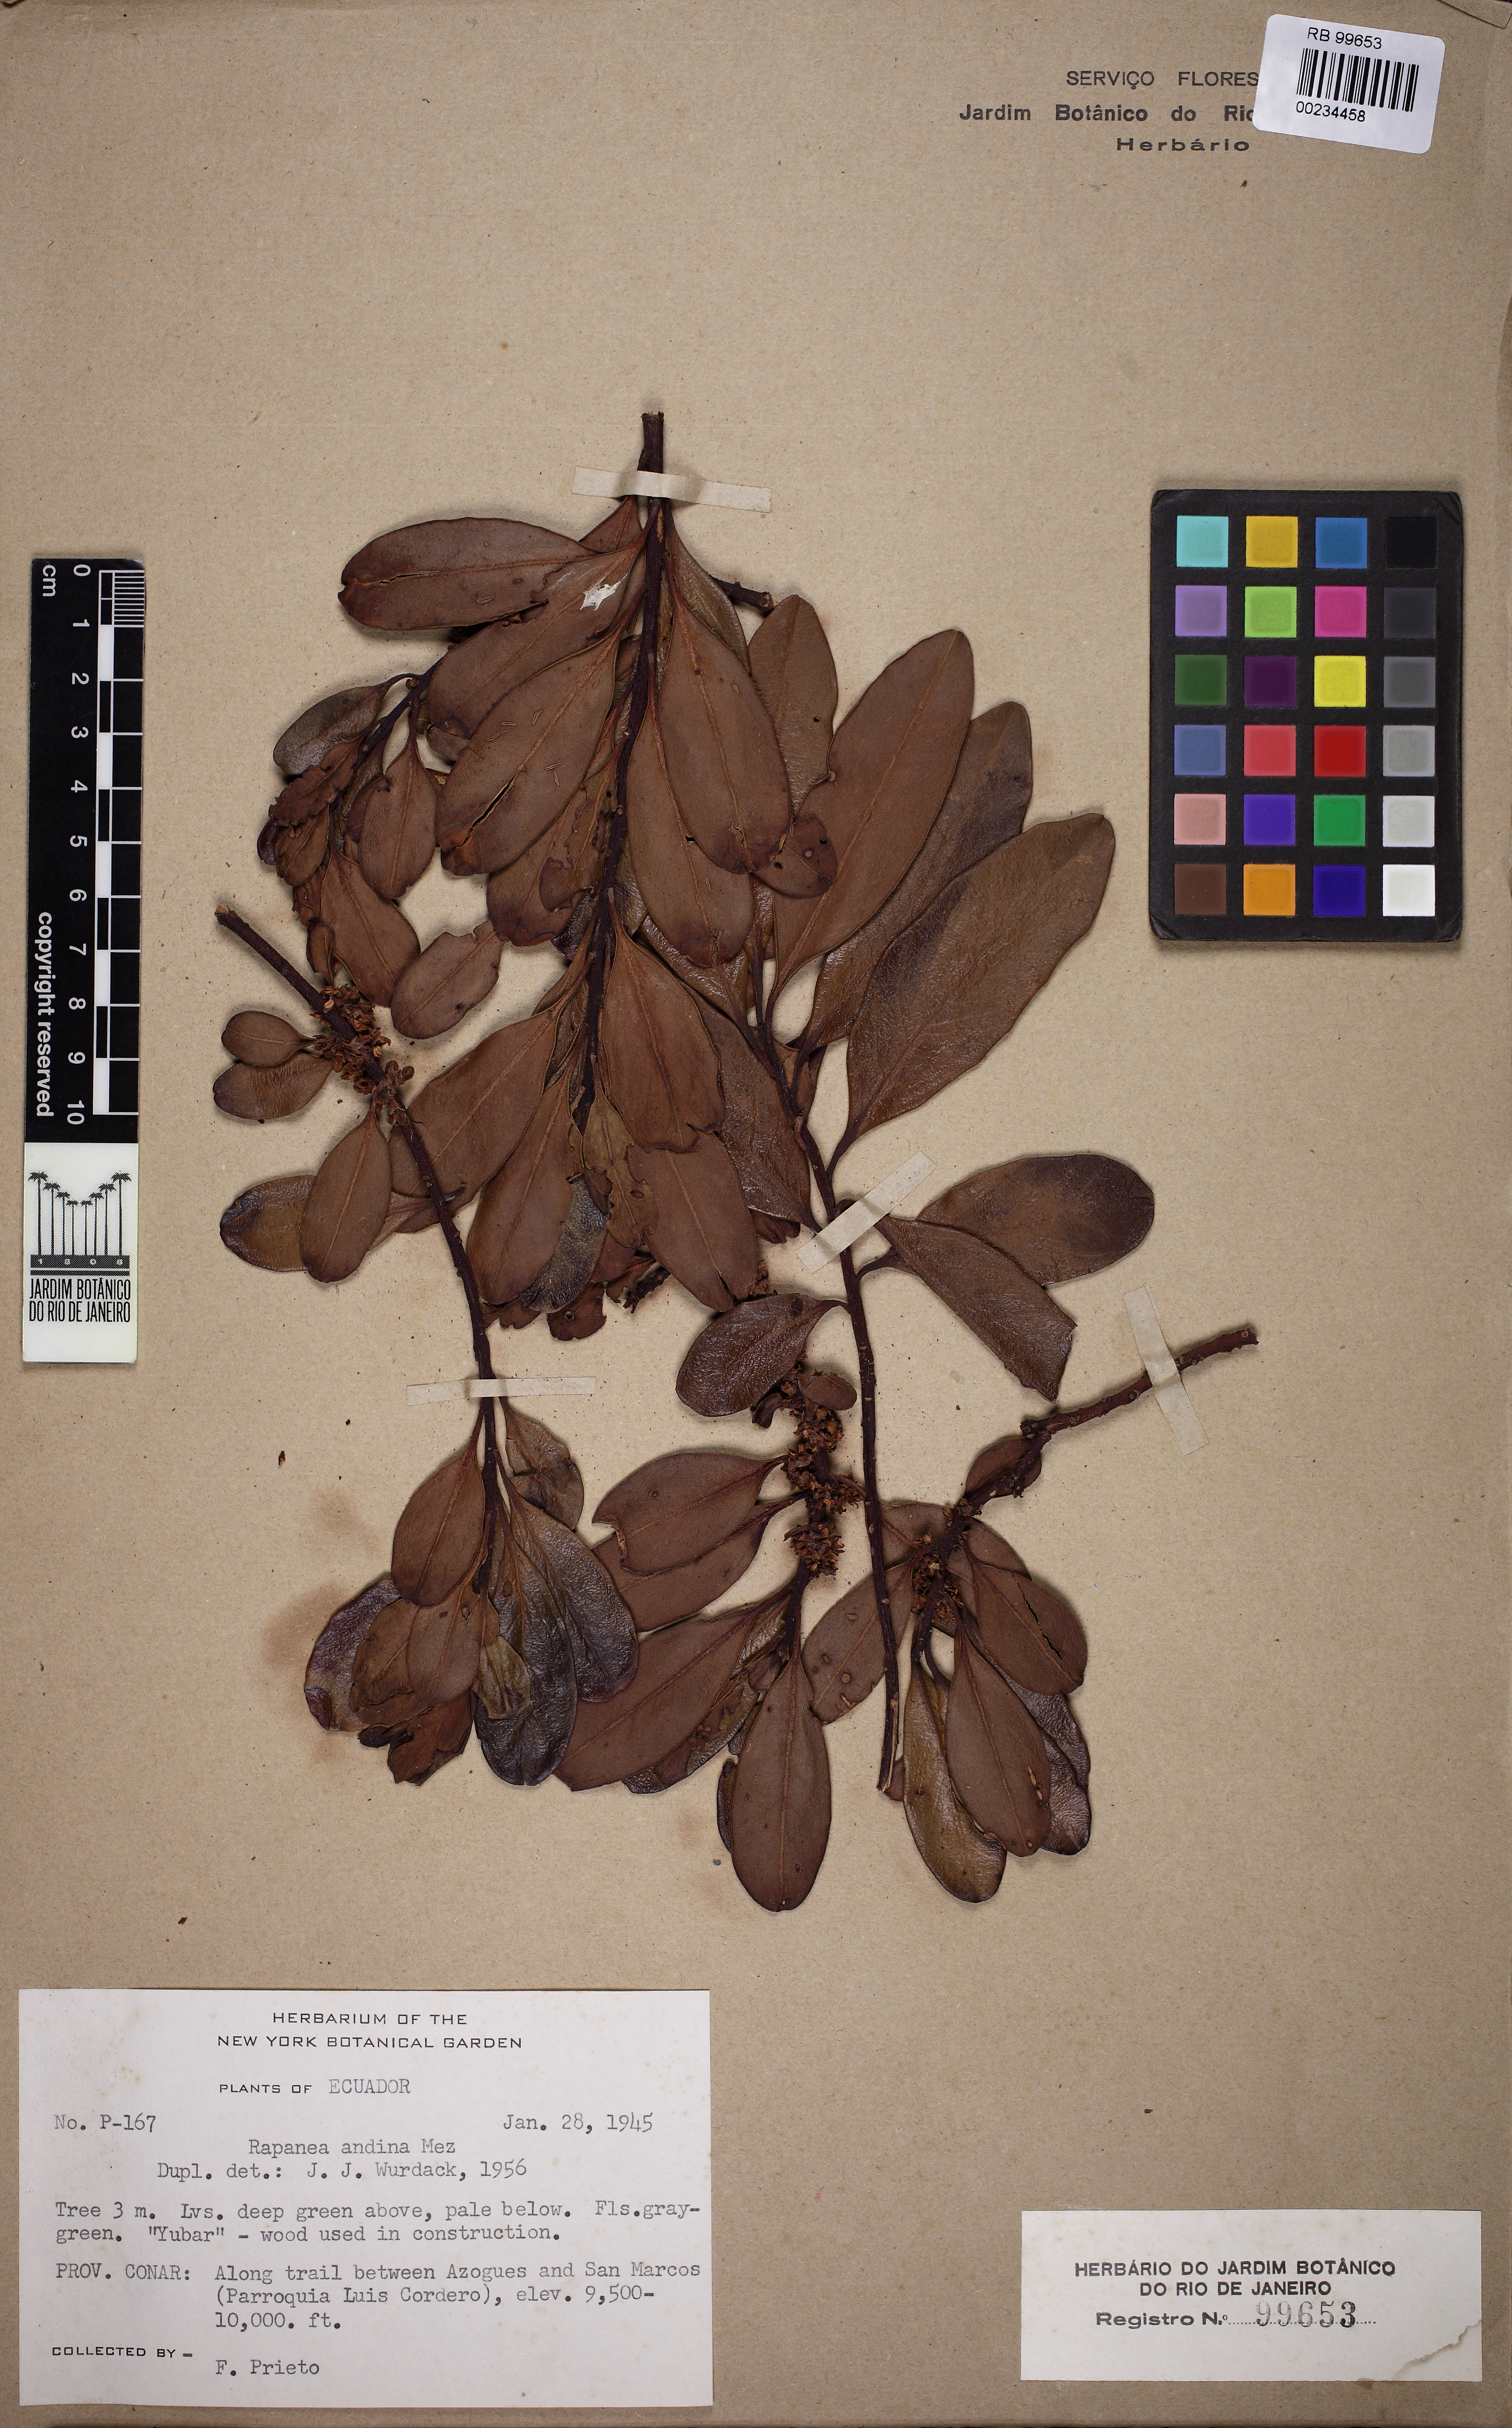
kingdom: Plantae
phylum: Tracheophyta
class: Magnoliopsida
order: Ericales
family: Primulaceae
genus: Myrsine
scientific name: Myrsine andina
